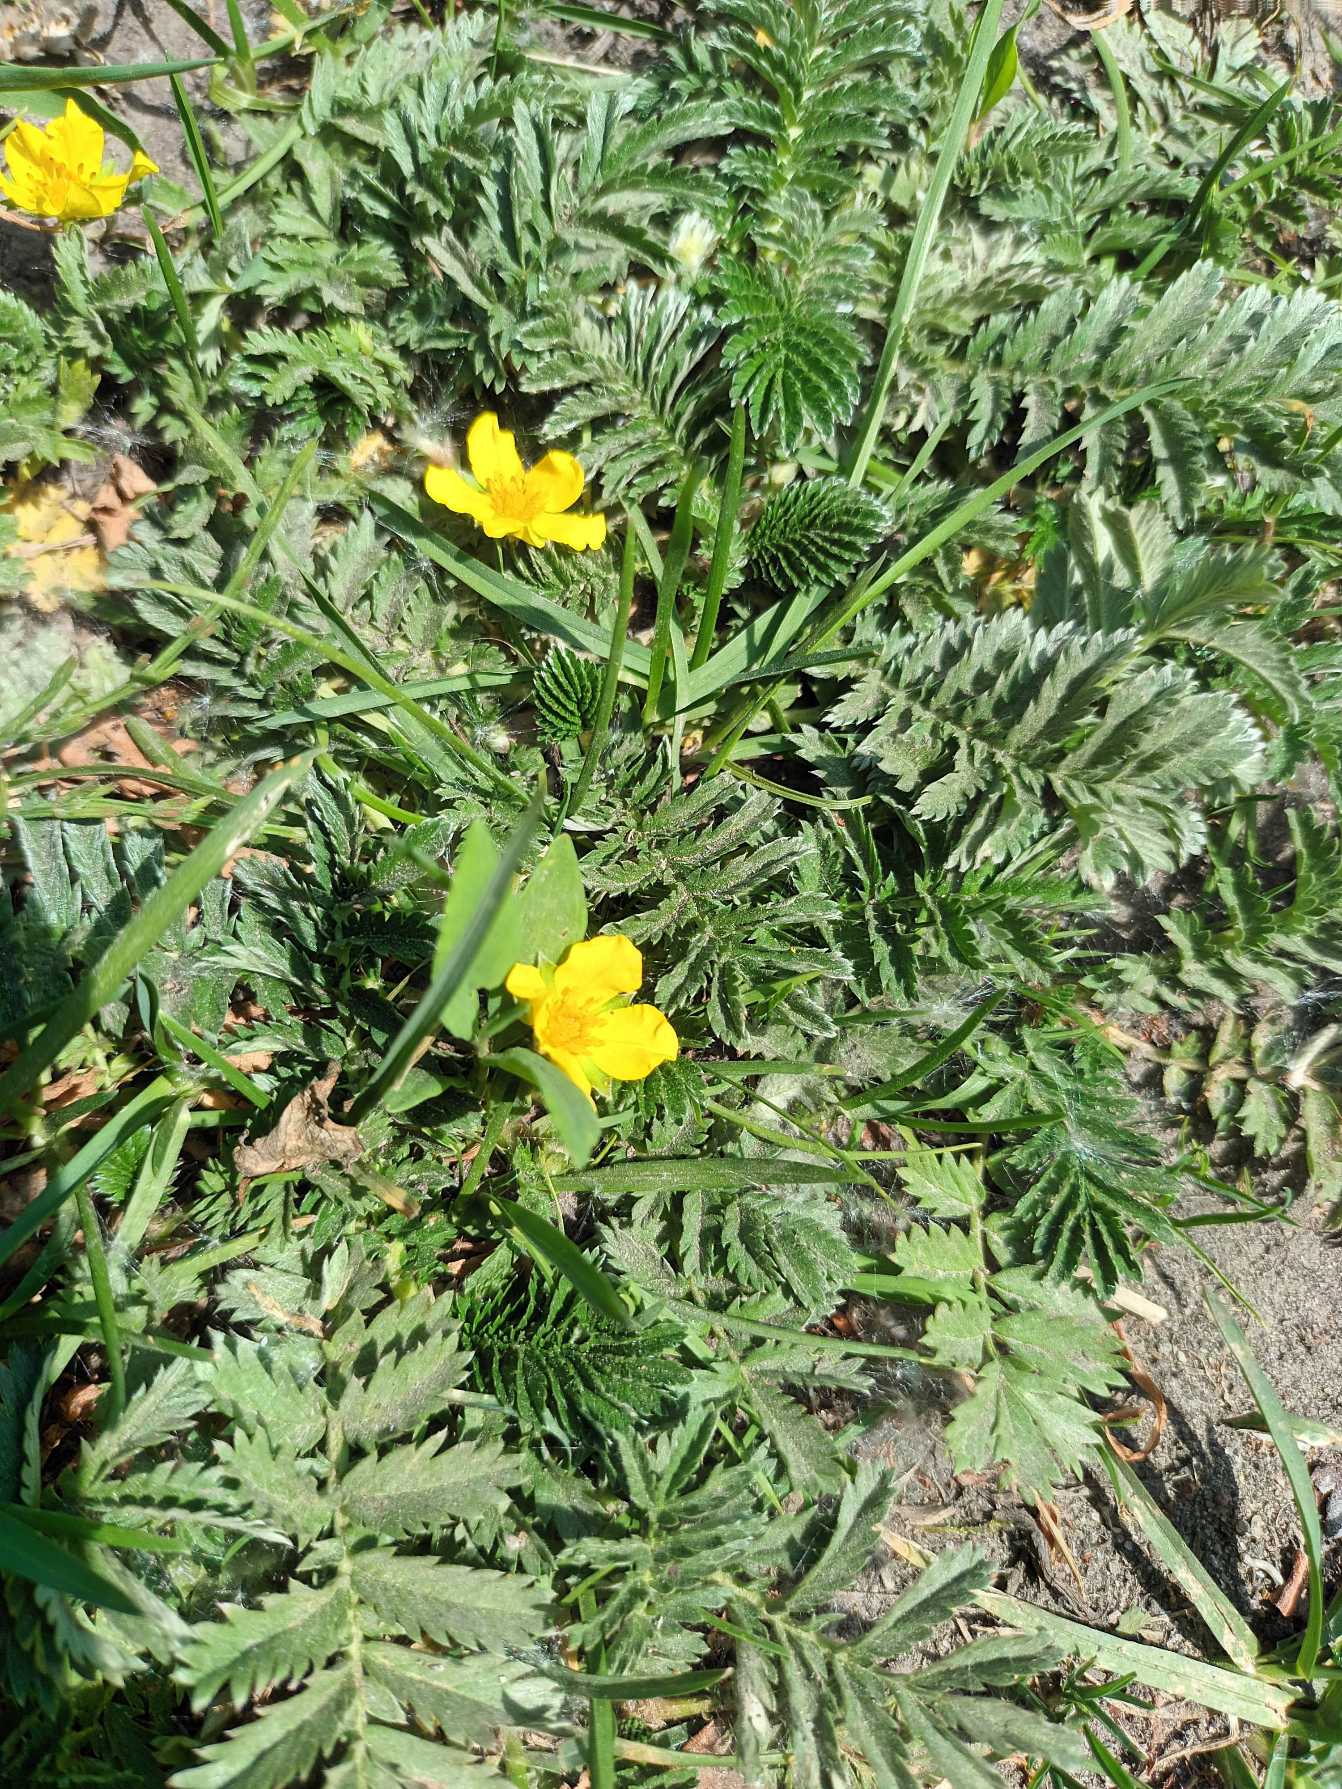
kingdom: Plantae
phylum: Tracheophyta
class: Magnoliopsida
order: Rosales
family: Rosaceae
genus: Argentina
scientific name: Argentina anserina
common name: Gåsepotentil
